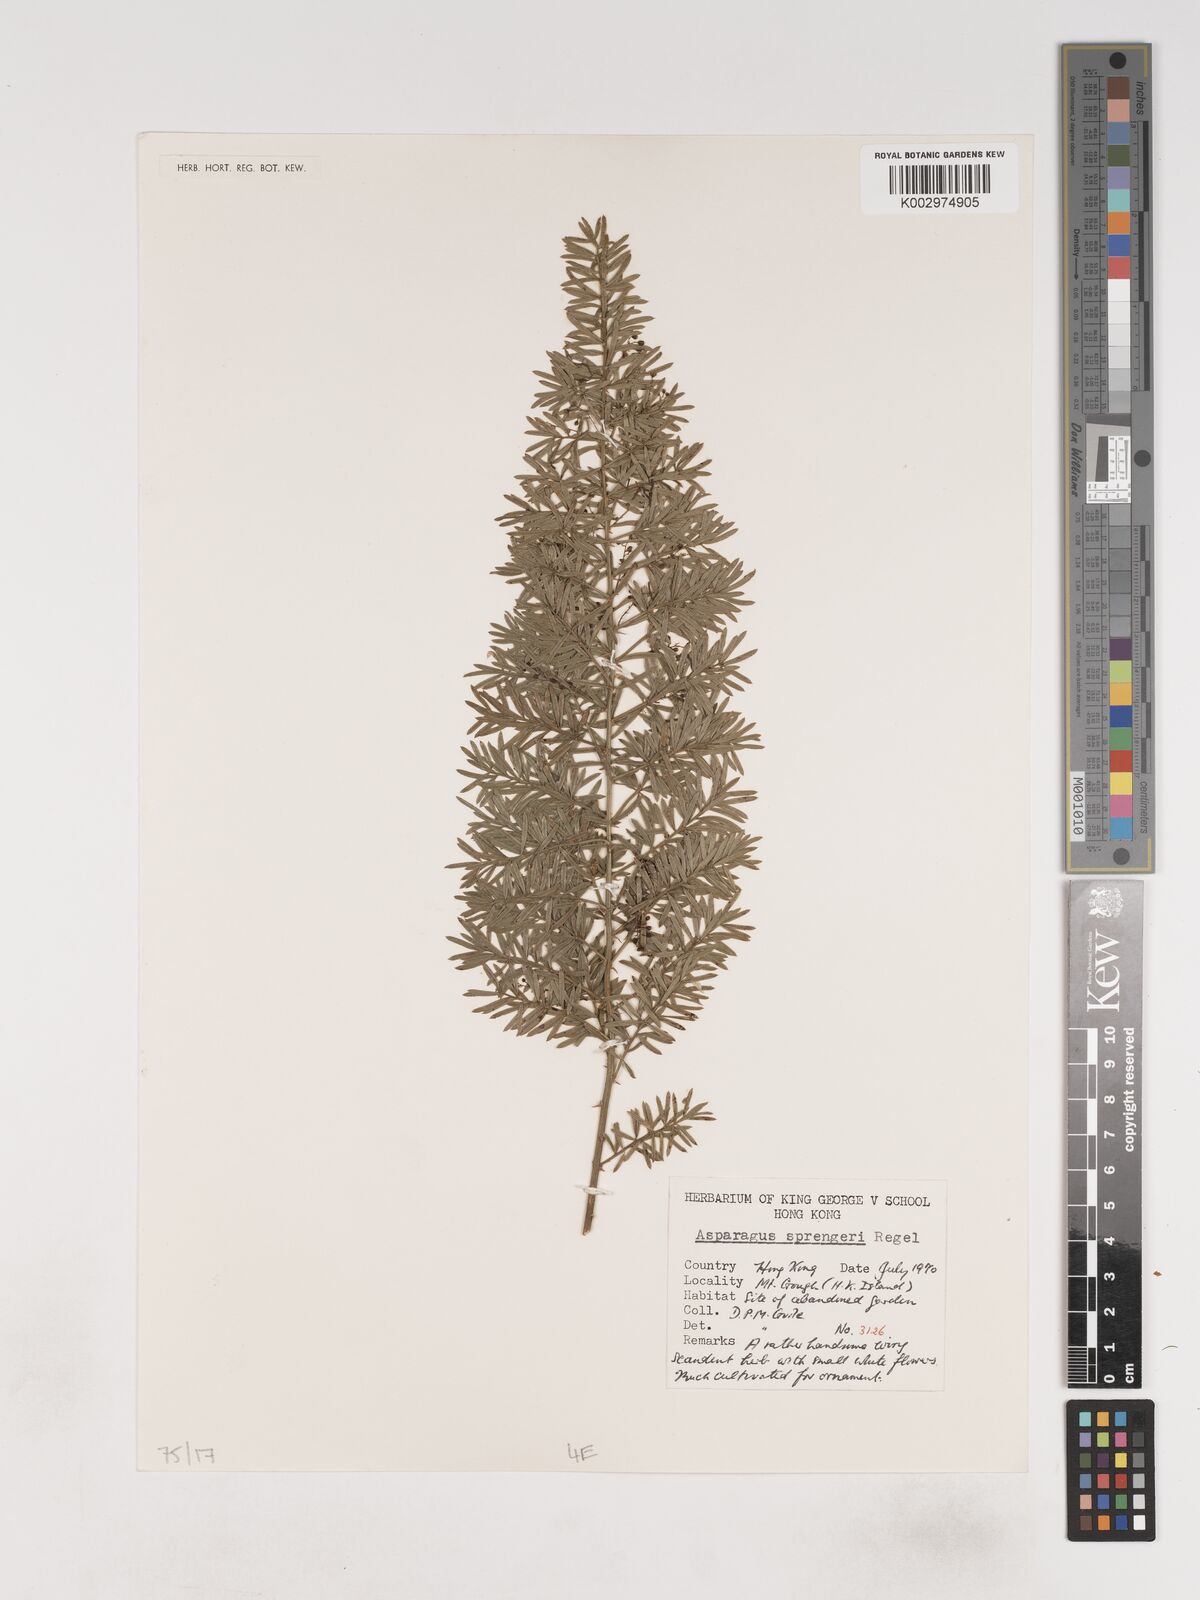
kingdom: Plantae
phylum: Tracheophyta
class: Liliopsida
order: Asparagales
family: Asparagaceae
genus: Asparagus
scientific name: Asparagus densiflorus
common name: Asparagus fern
